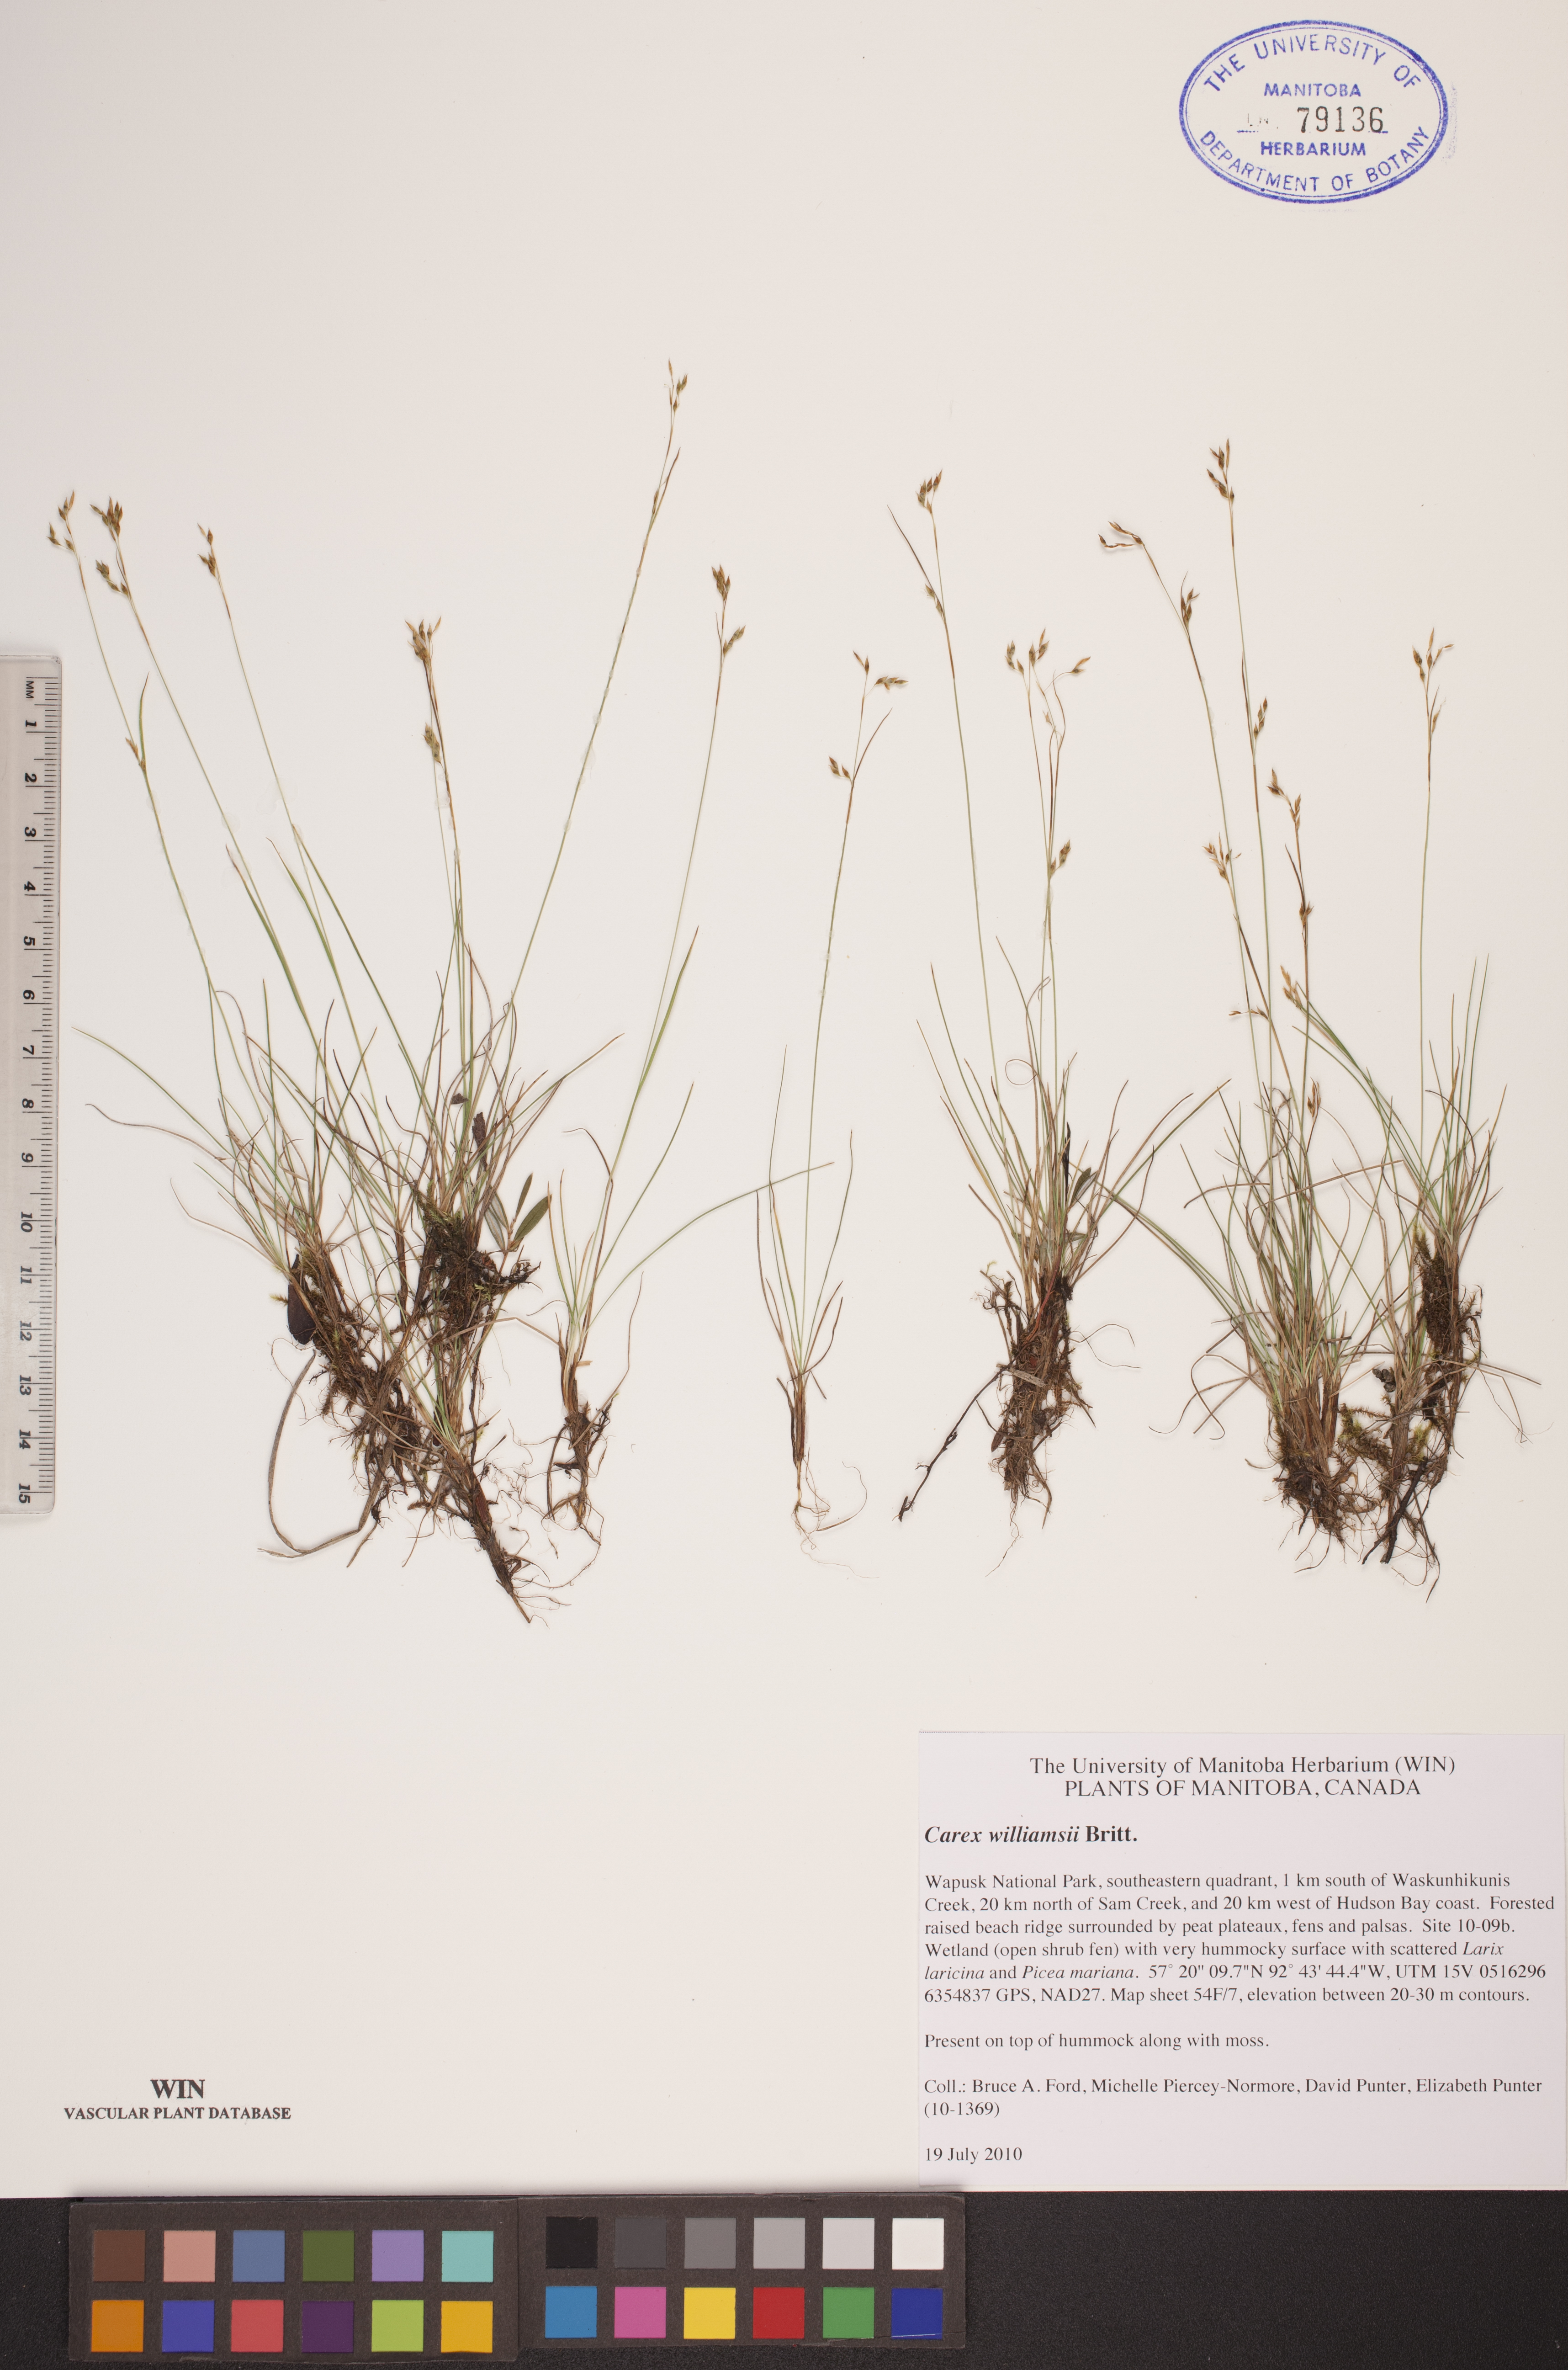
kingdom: Plantae
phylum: Tracheophyta
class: Liliopsida
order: Poales
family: Cyperaceae
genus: Carex
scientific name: Carex williamsii
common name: Williams' sedge
